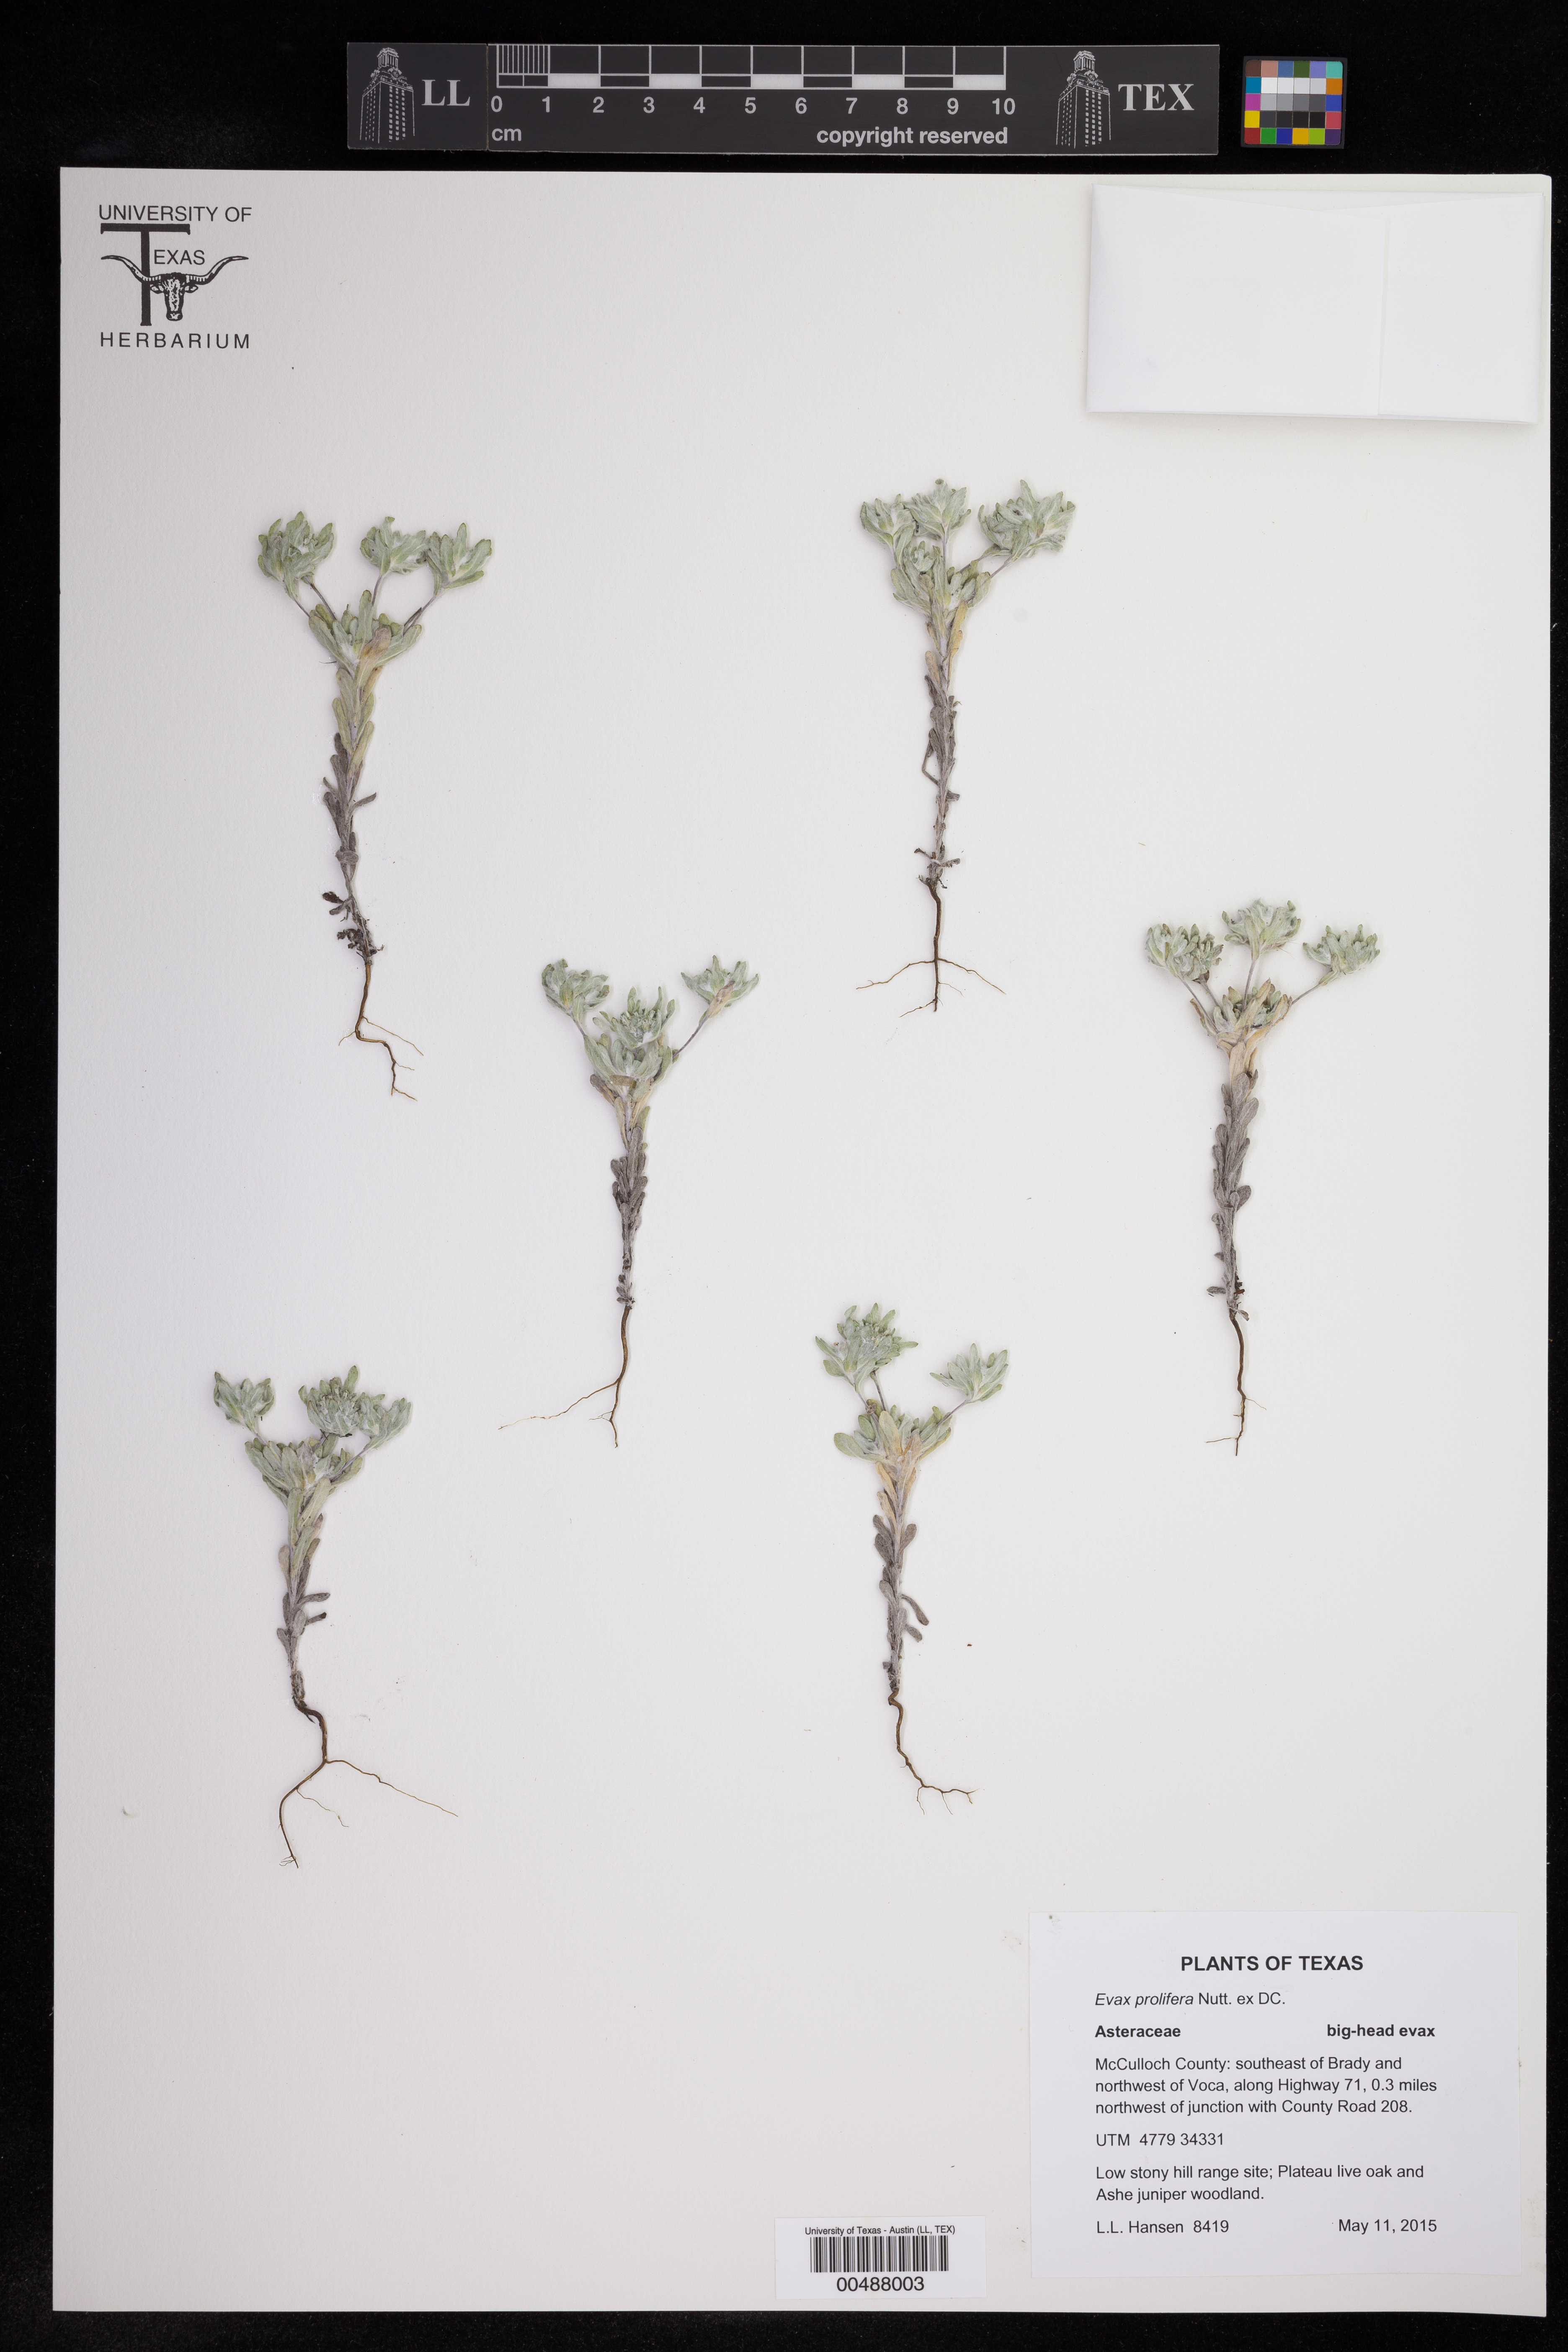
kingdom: Plantae
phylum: Tracheophyta
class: Magnoliopsida
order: Asterales
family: Asteraceae
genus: Diaperia
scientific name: Diaperia prolifera
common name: Big-head rabbit-tobacco
